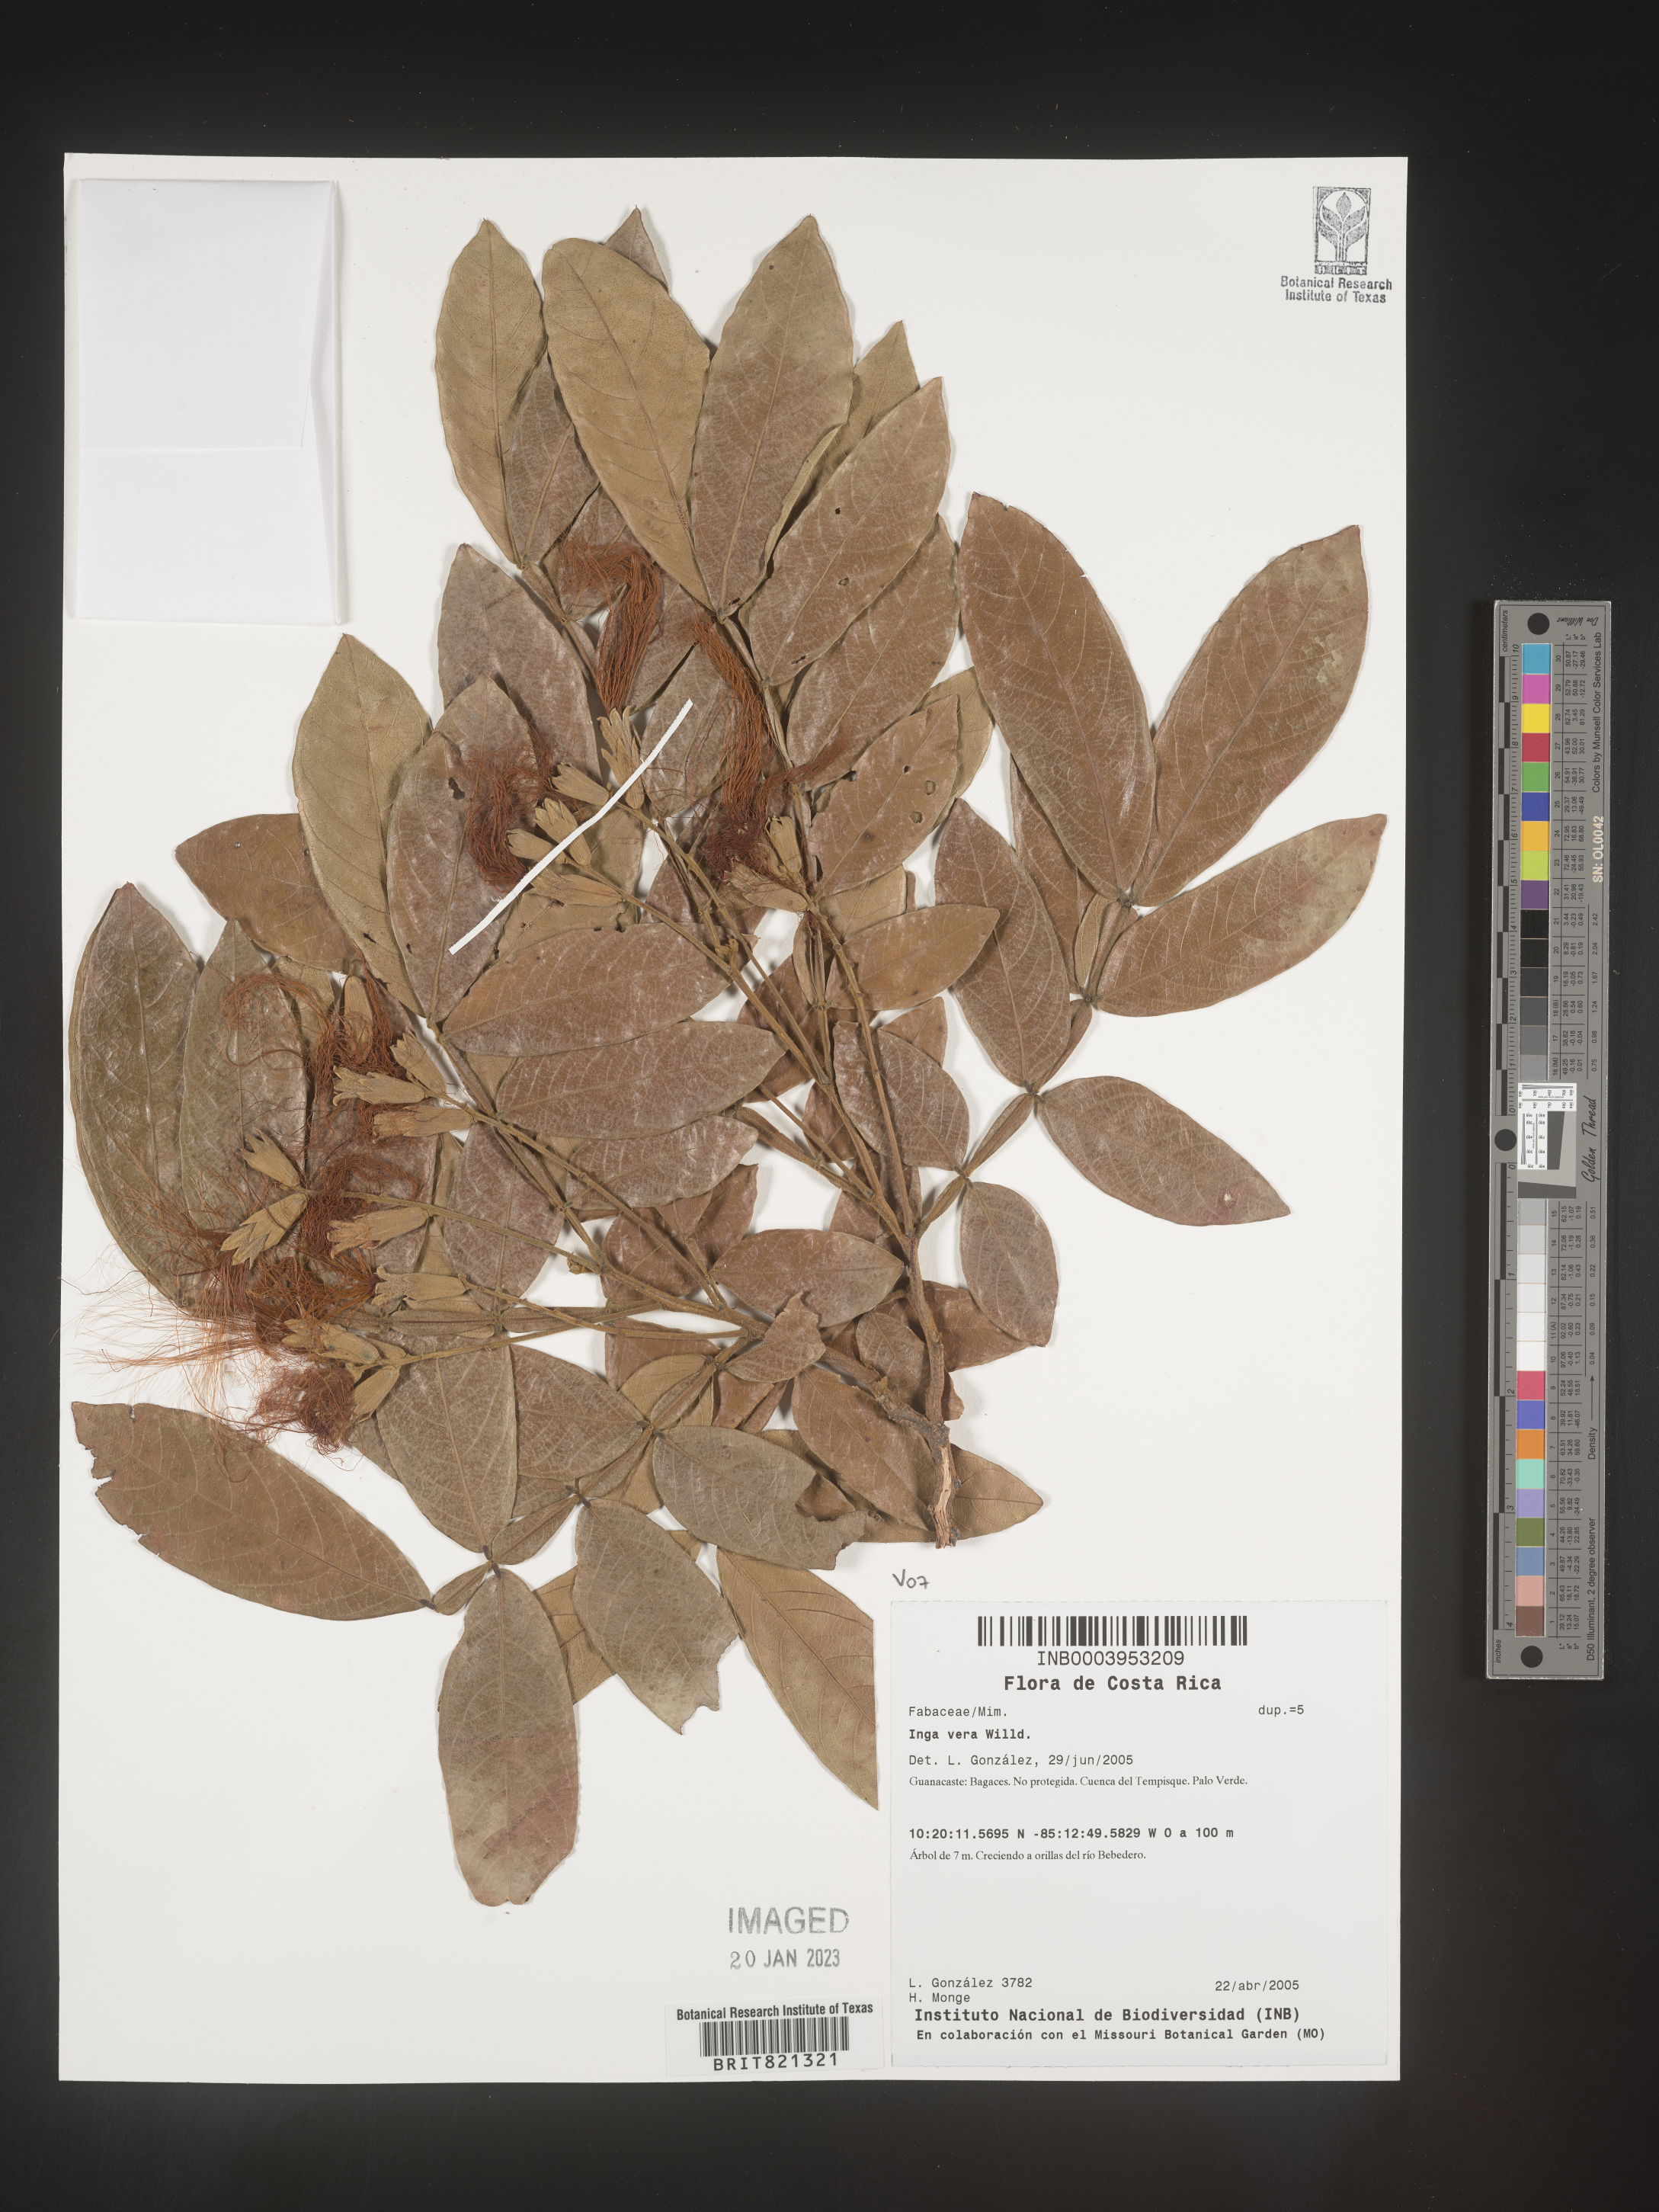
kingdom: Plantae
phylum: Tracheophyta
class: Magnoliopsida
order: Fabales
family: Fabaceae
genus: Inga
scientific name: Inga
